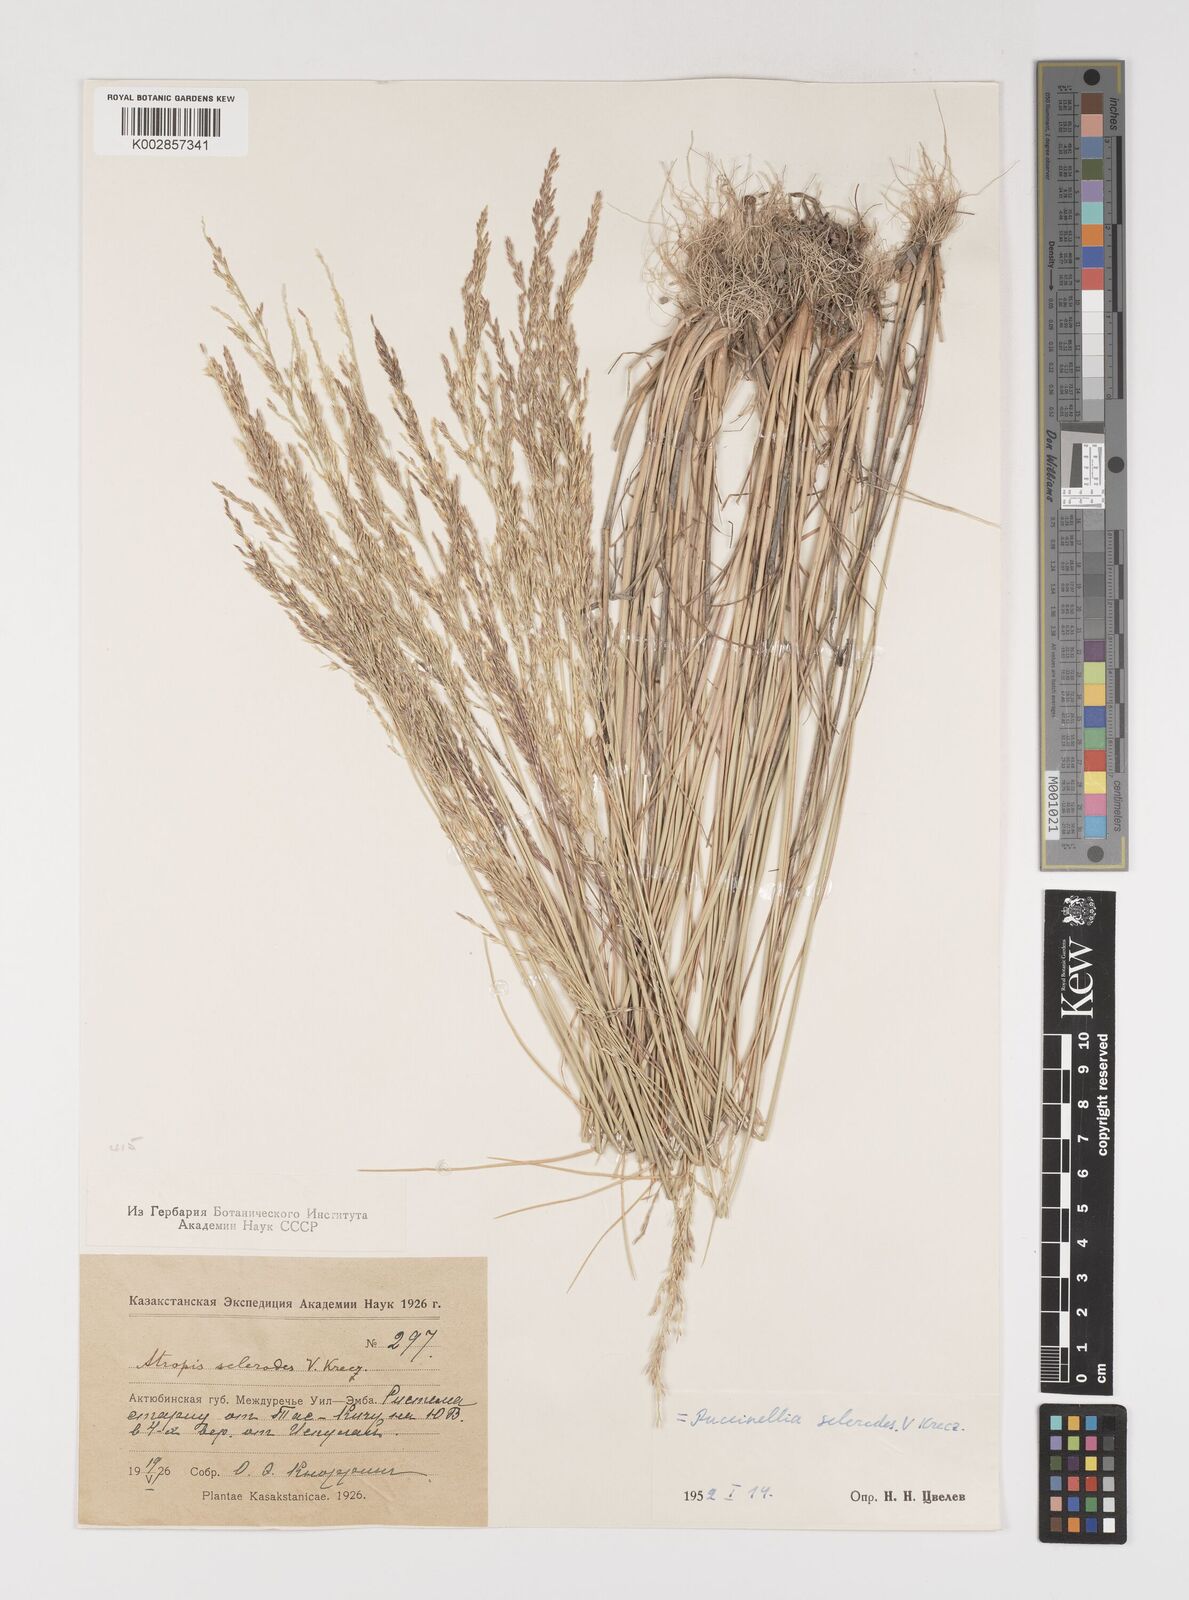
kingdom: Plantae
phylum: Tracheophyta
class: Liliopsida
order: Poales
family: Poaceae
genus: Puccinellia
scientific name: Puccinellia gigantea
